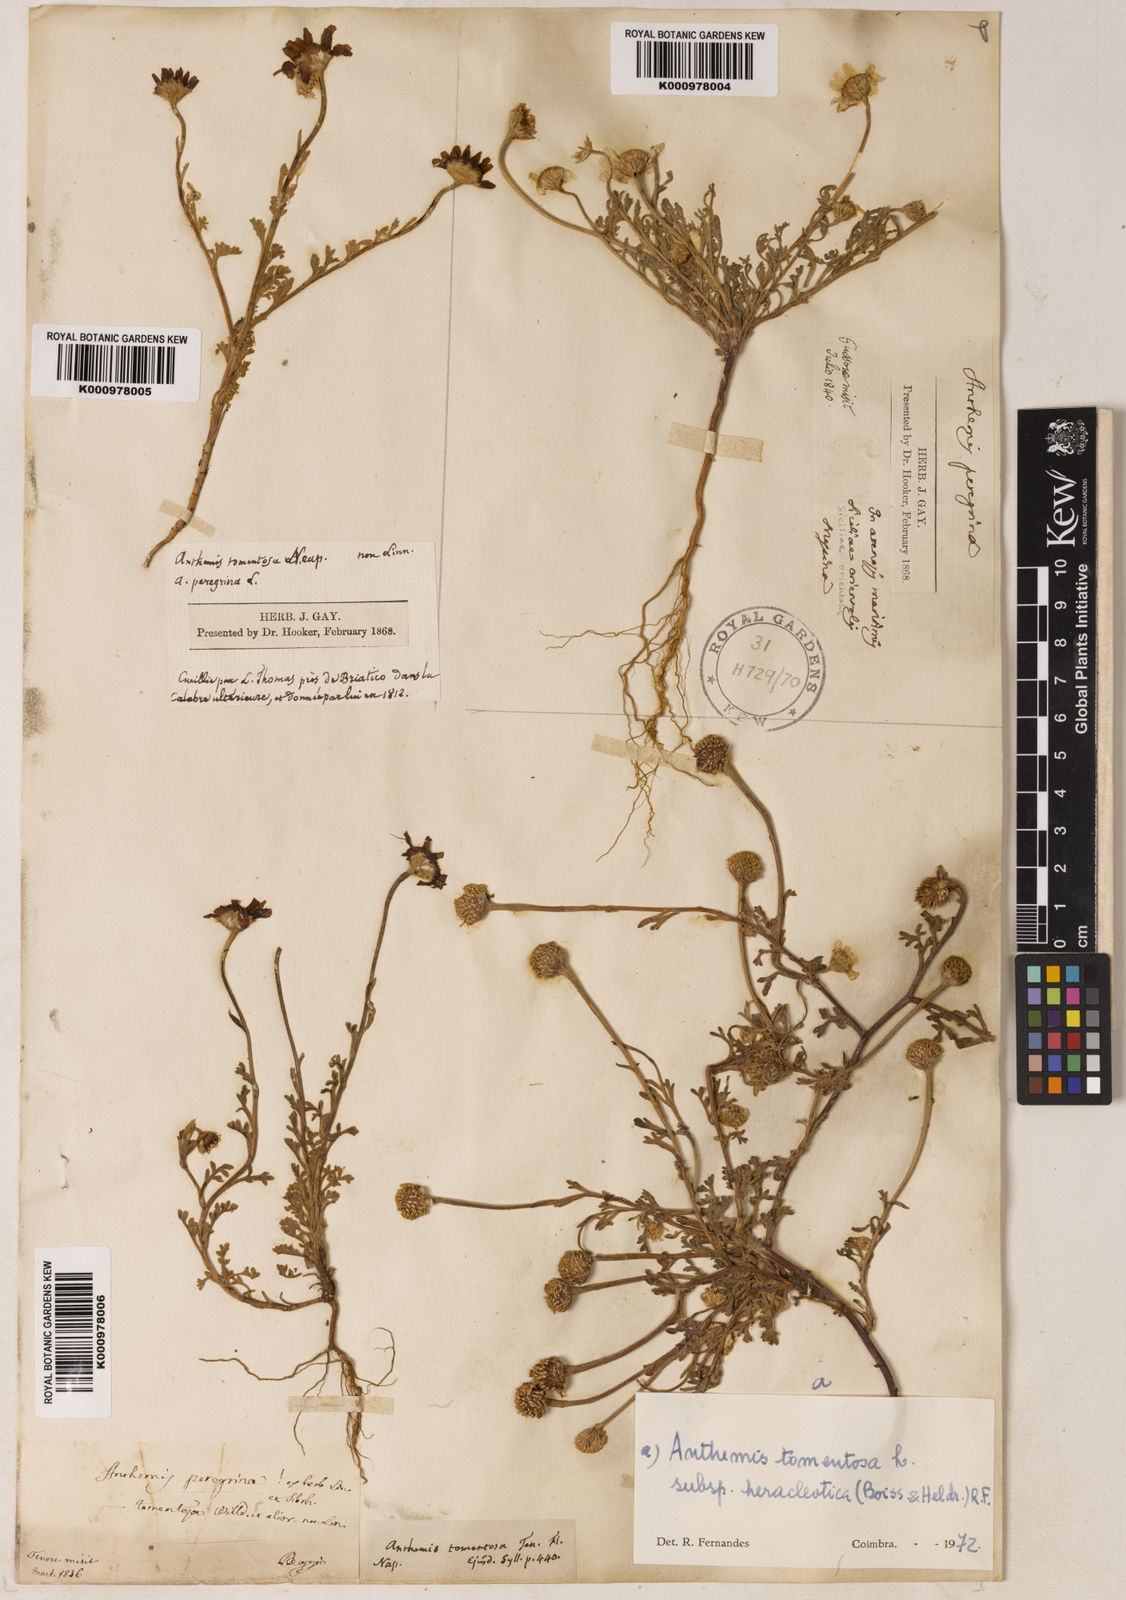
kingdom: Plantae
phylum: Tracheophyta
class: Magnoliopsida
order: Asterales
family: Asteraceae
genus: Anthemis
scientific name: Anthemis tomentosa
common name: Woolly chamomile
